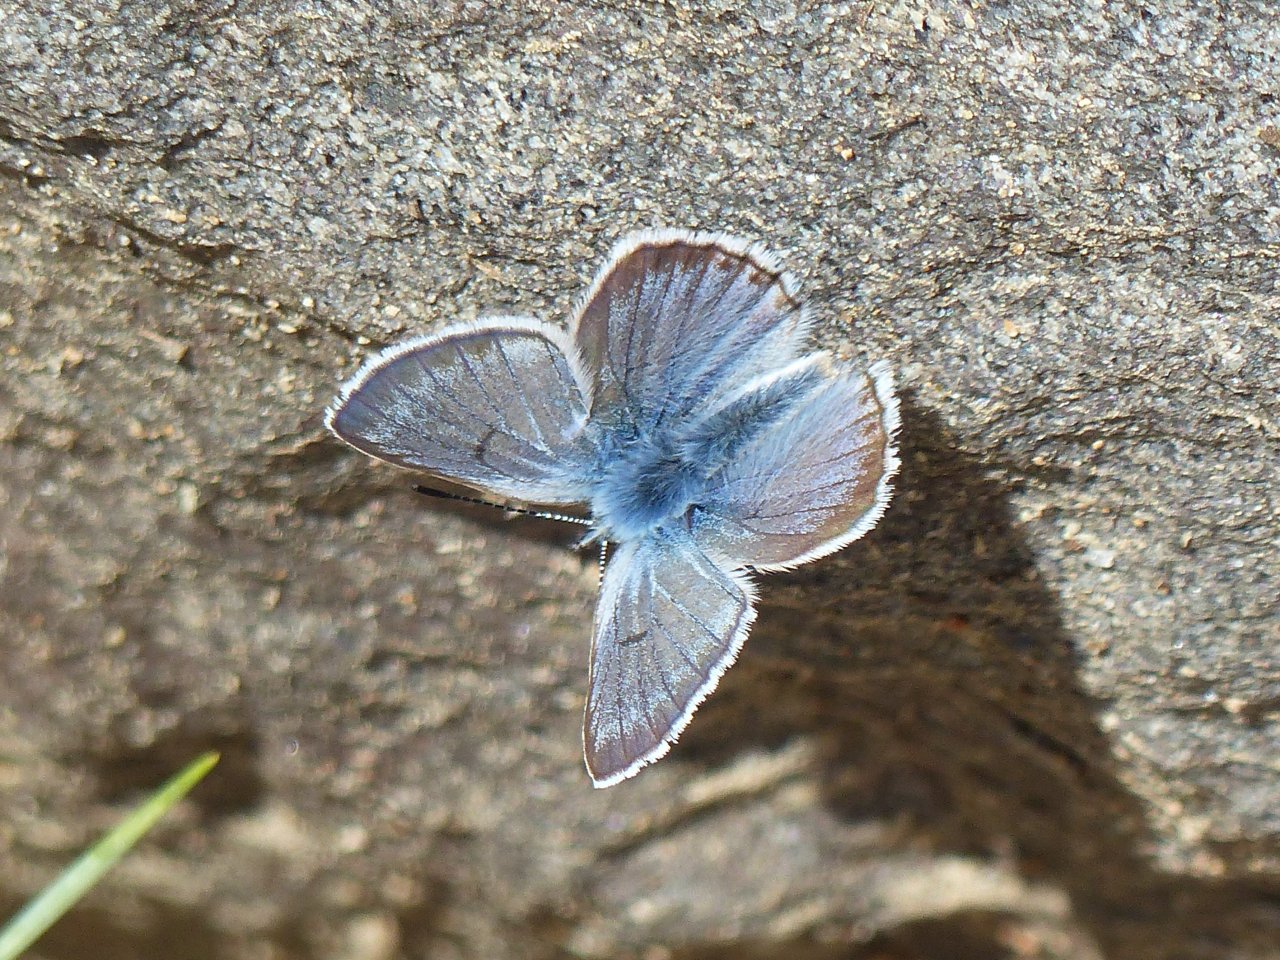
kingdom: Animalia
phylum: Arthropoda
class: Insecta
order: Lepidoptera
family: Lycaenidae
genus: Plebejus
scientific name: Plebejus saepiolus
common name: Greenish Blue
